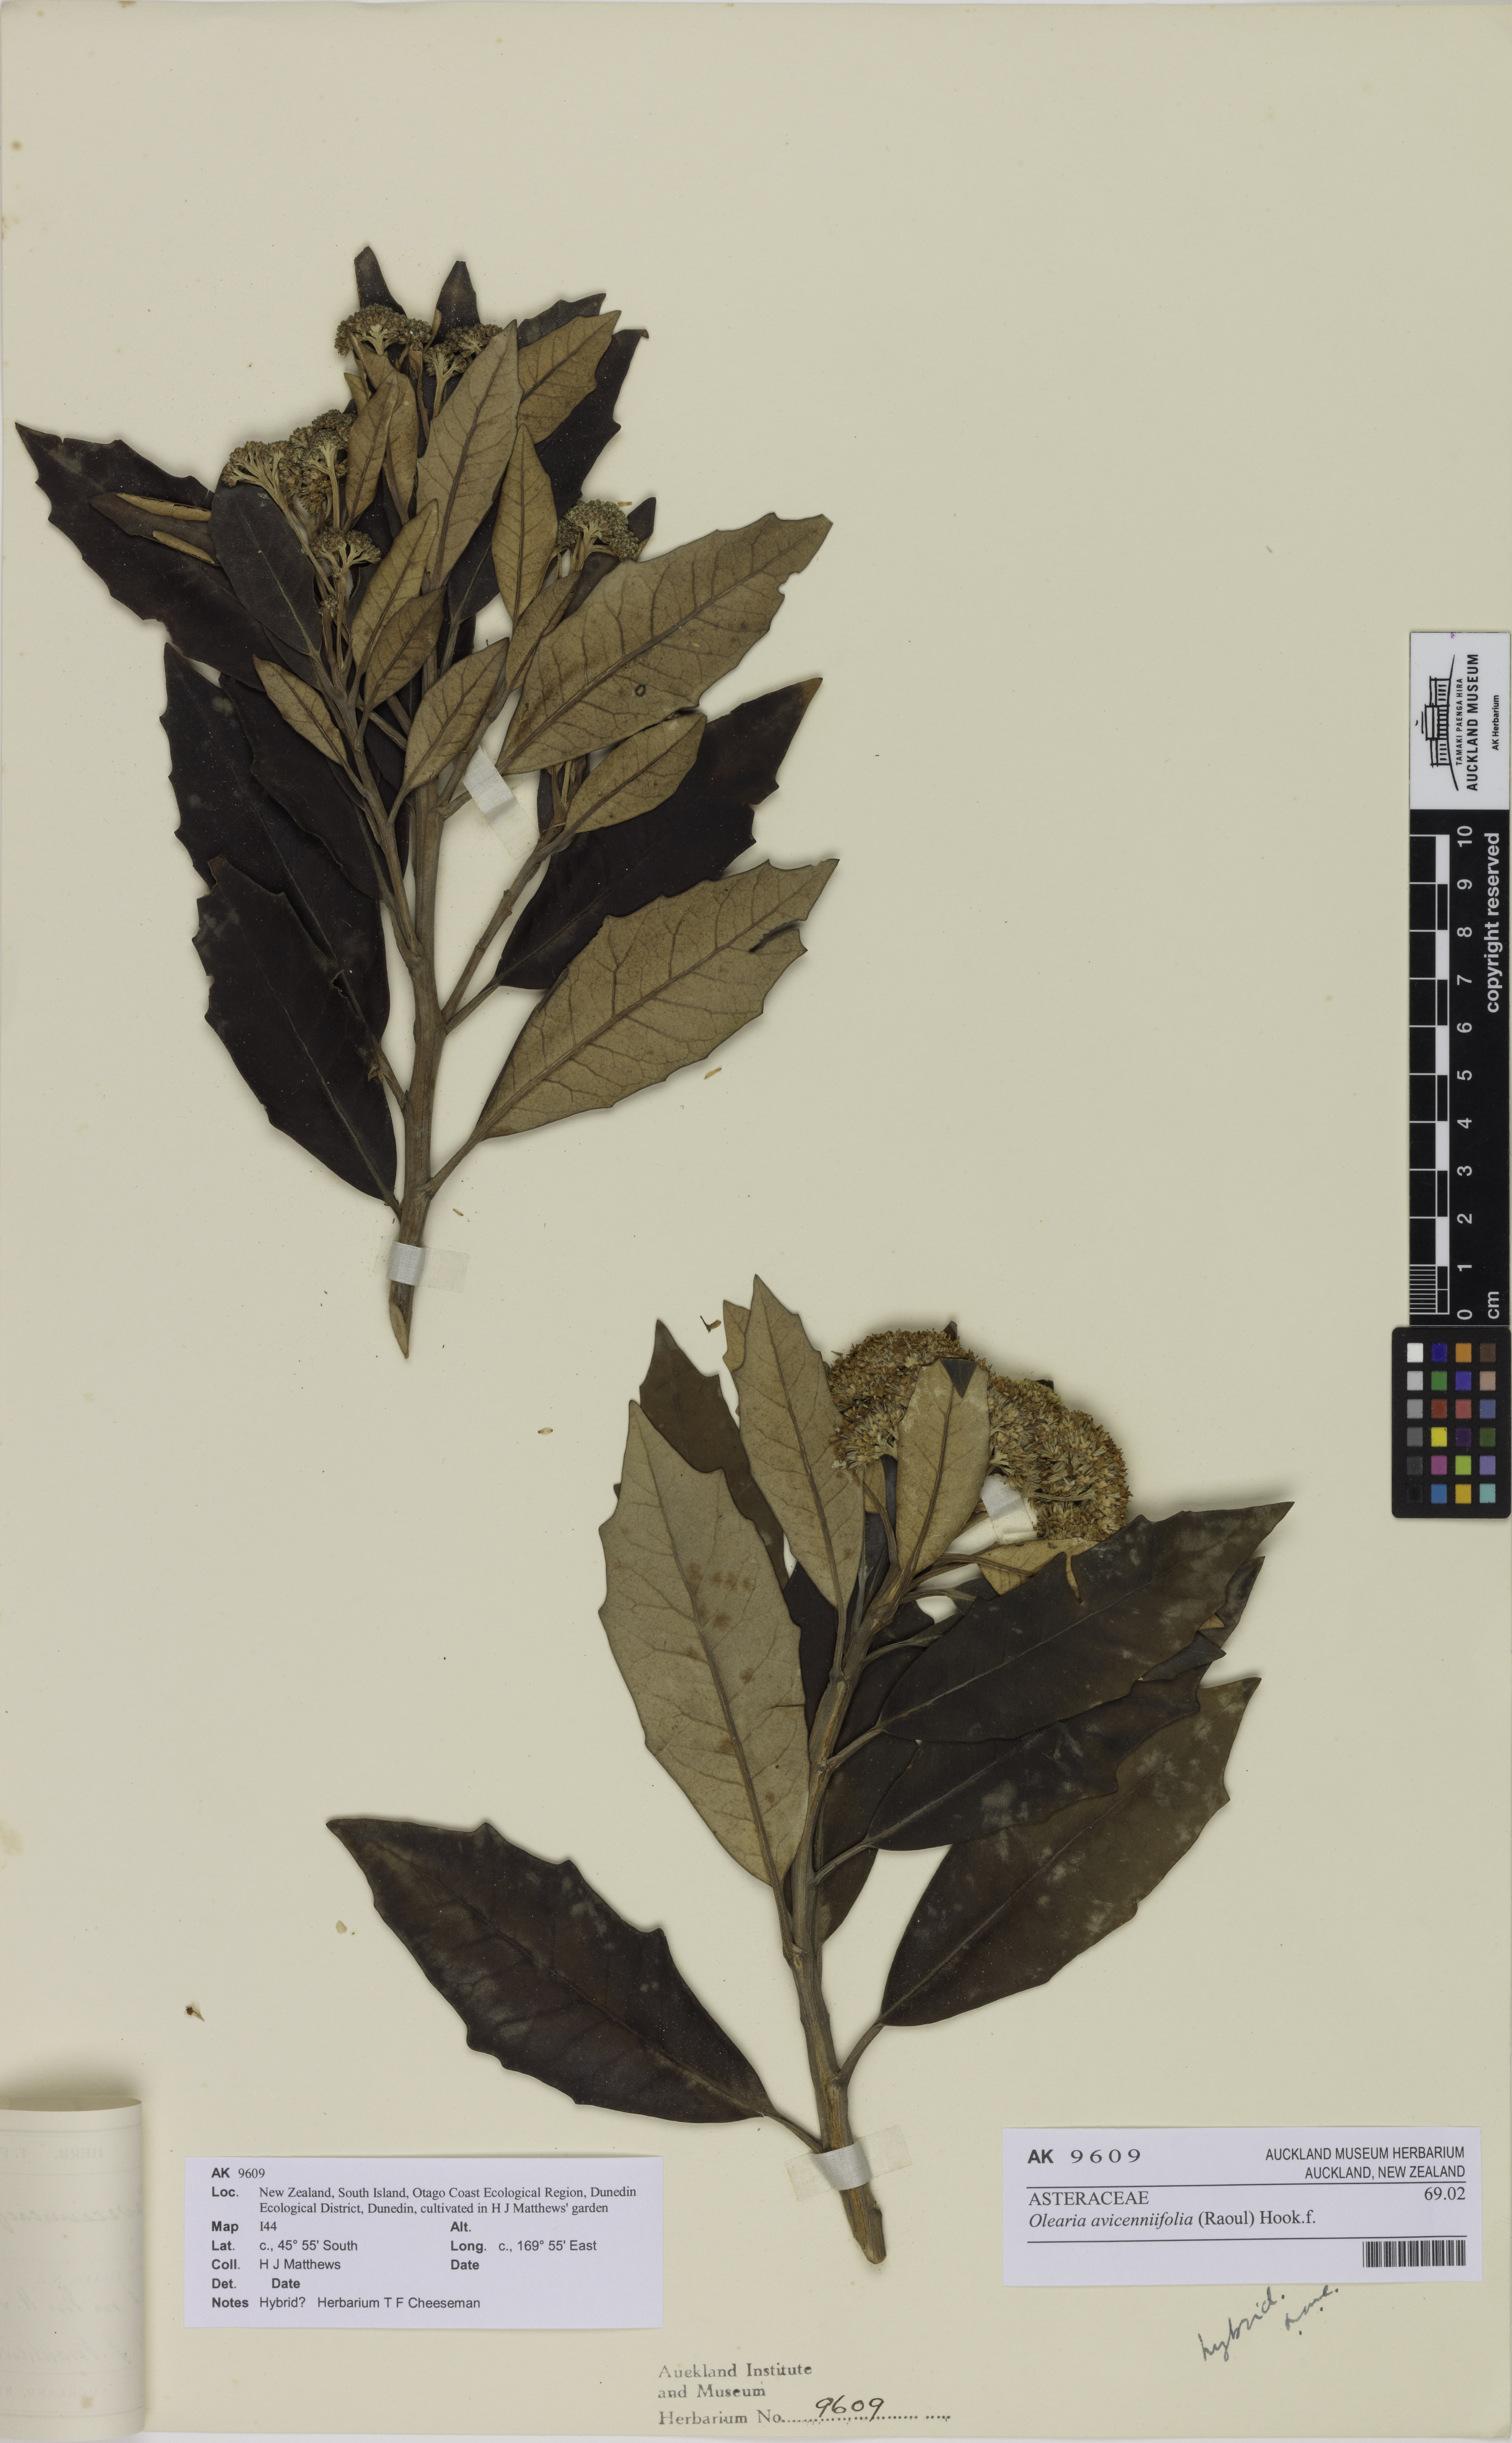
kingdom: Plantae
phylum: Tracheophyta
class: Magnoliopsida
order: Asterales
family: Asteraceae
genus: Olearia
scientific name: Olearia avicenniifolia
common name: Mangrove-leaf daisybush
